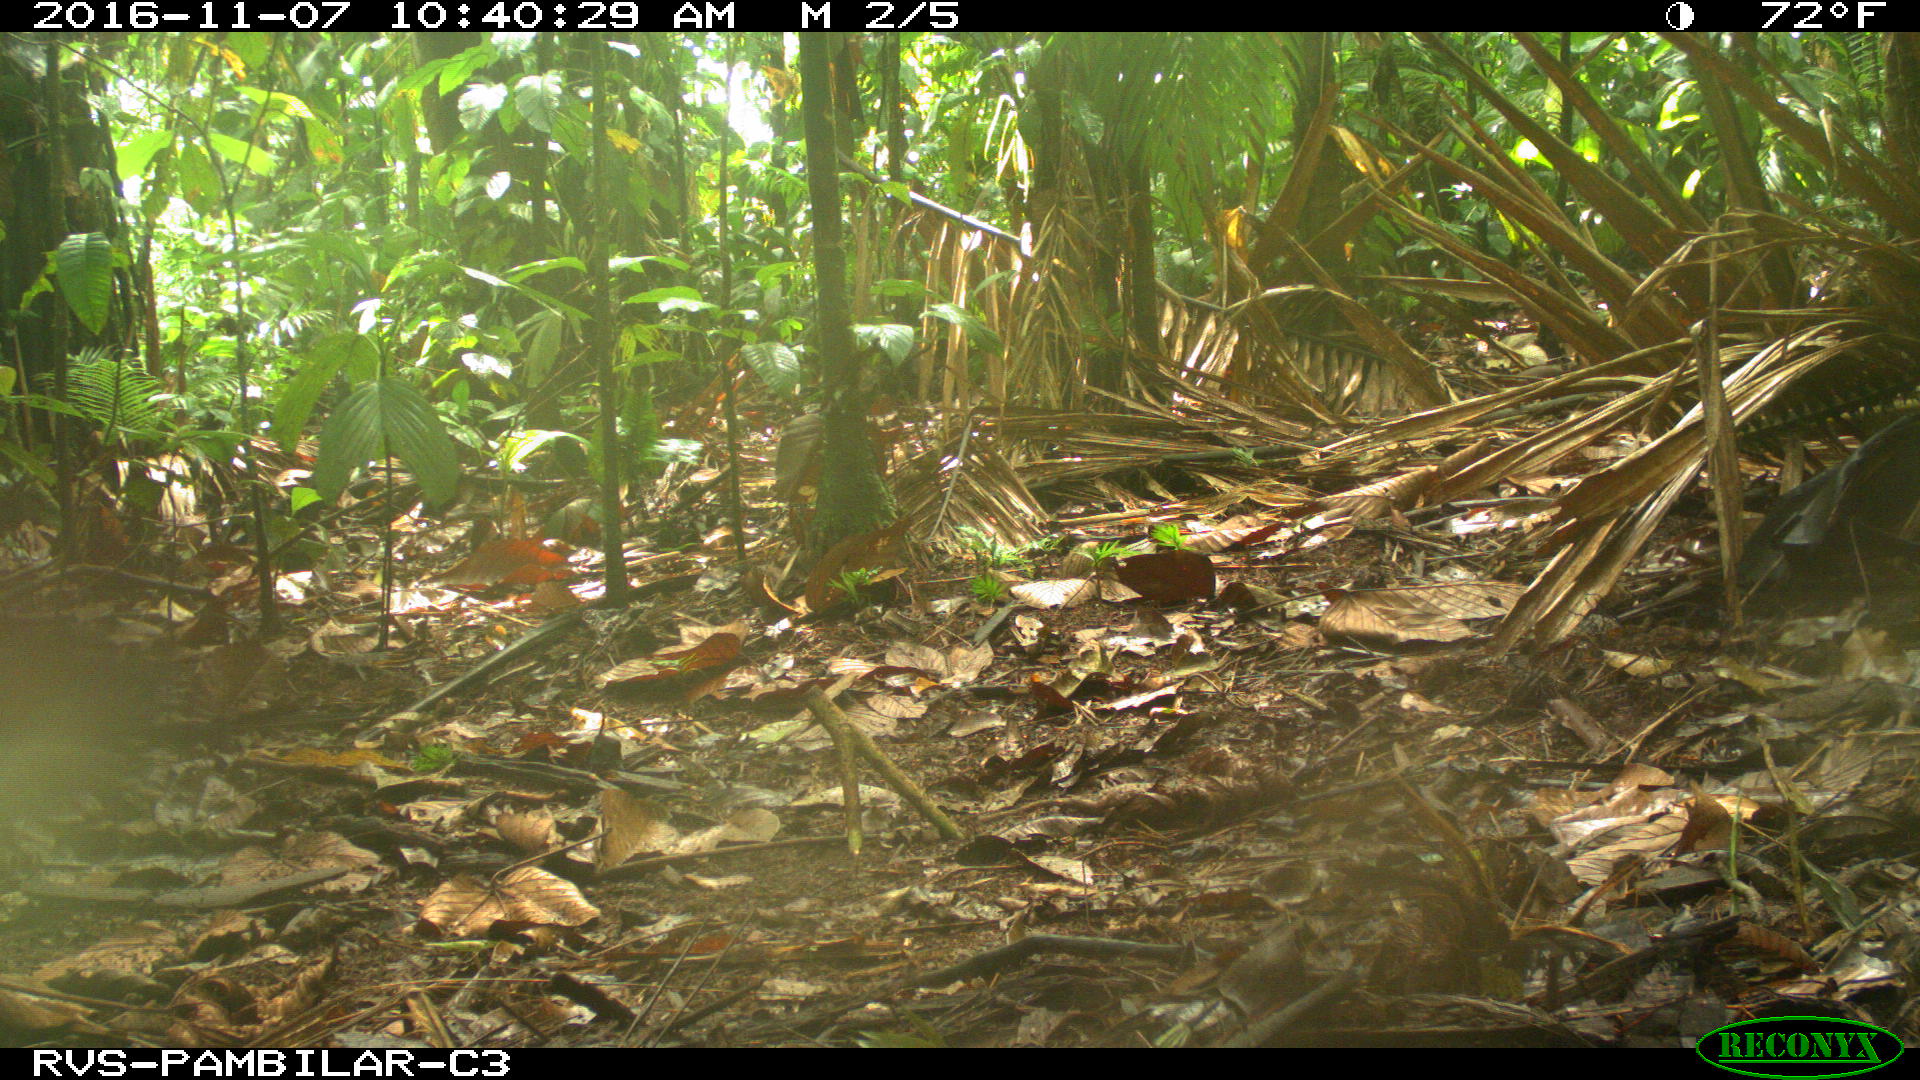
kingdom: Animalia
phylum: Chordata
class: Mammalia
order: Rodentia
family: Dasyproctidae
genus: Dasyprocta
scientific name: Dasyprocta punctata
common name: Central american agouti
